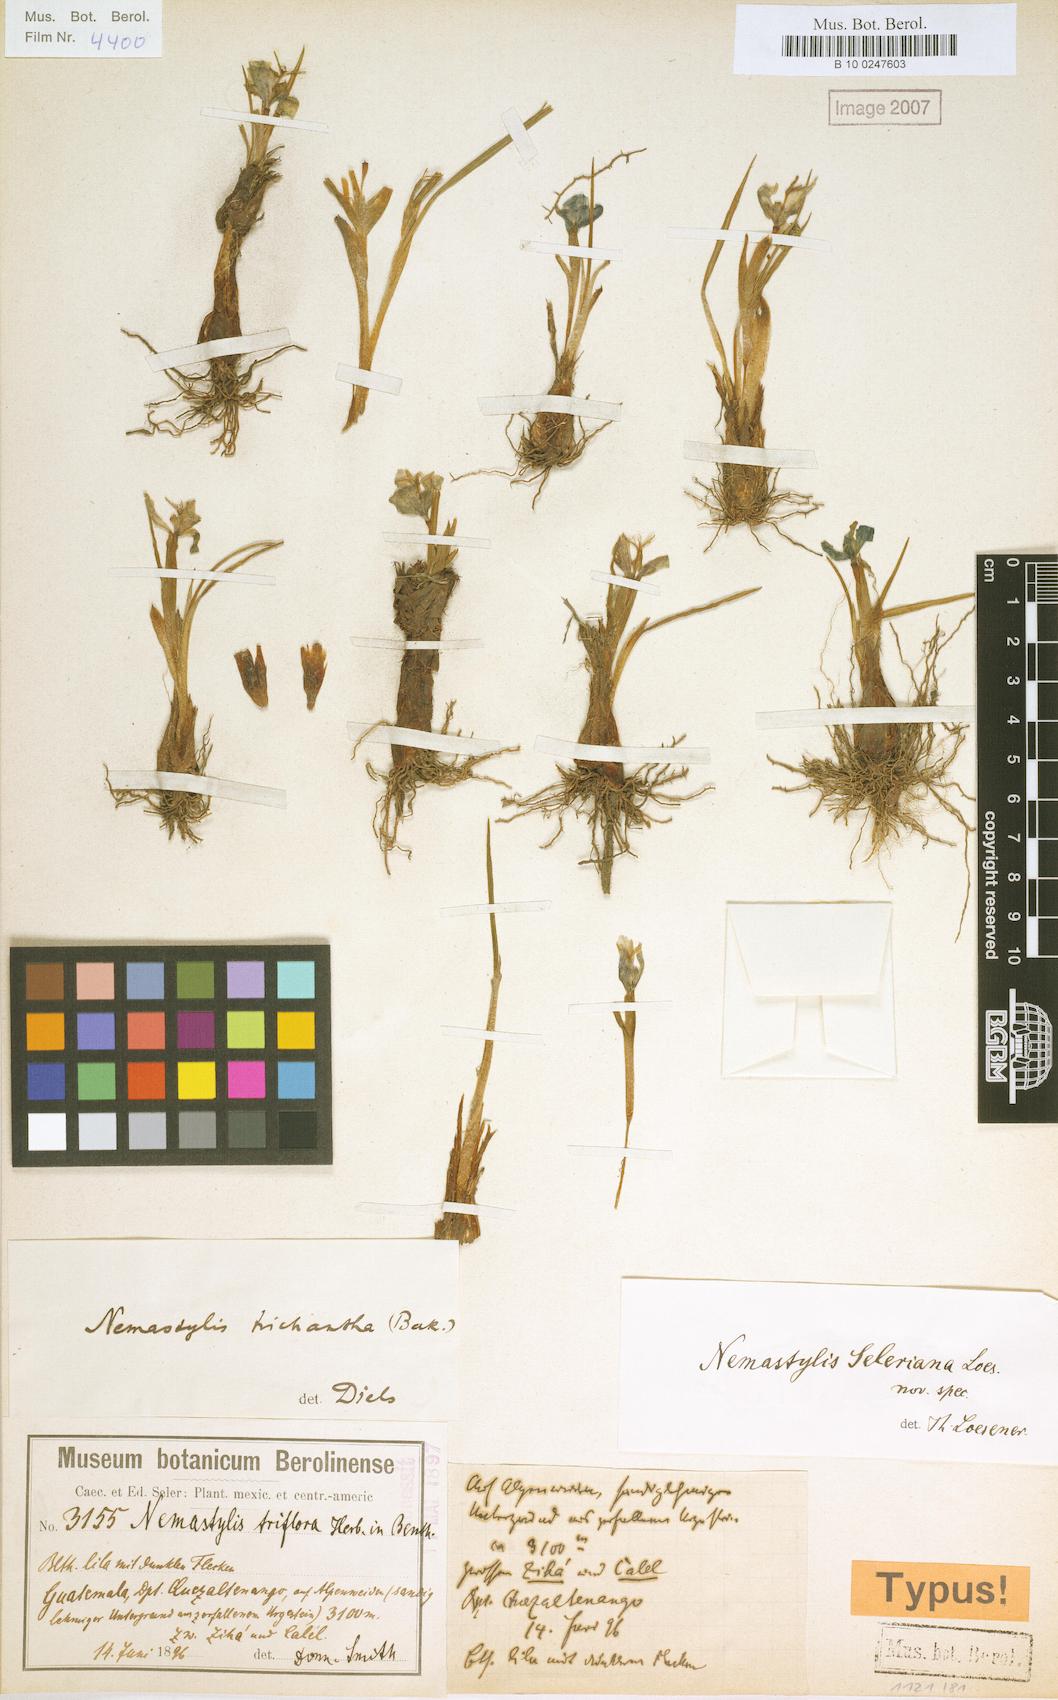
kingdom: Plantae
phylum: Tracheophyta
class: Liliopsida
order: Asparagales
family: Iridaceae
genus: Nemastylis
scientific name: Nemastylis tenuis
